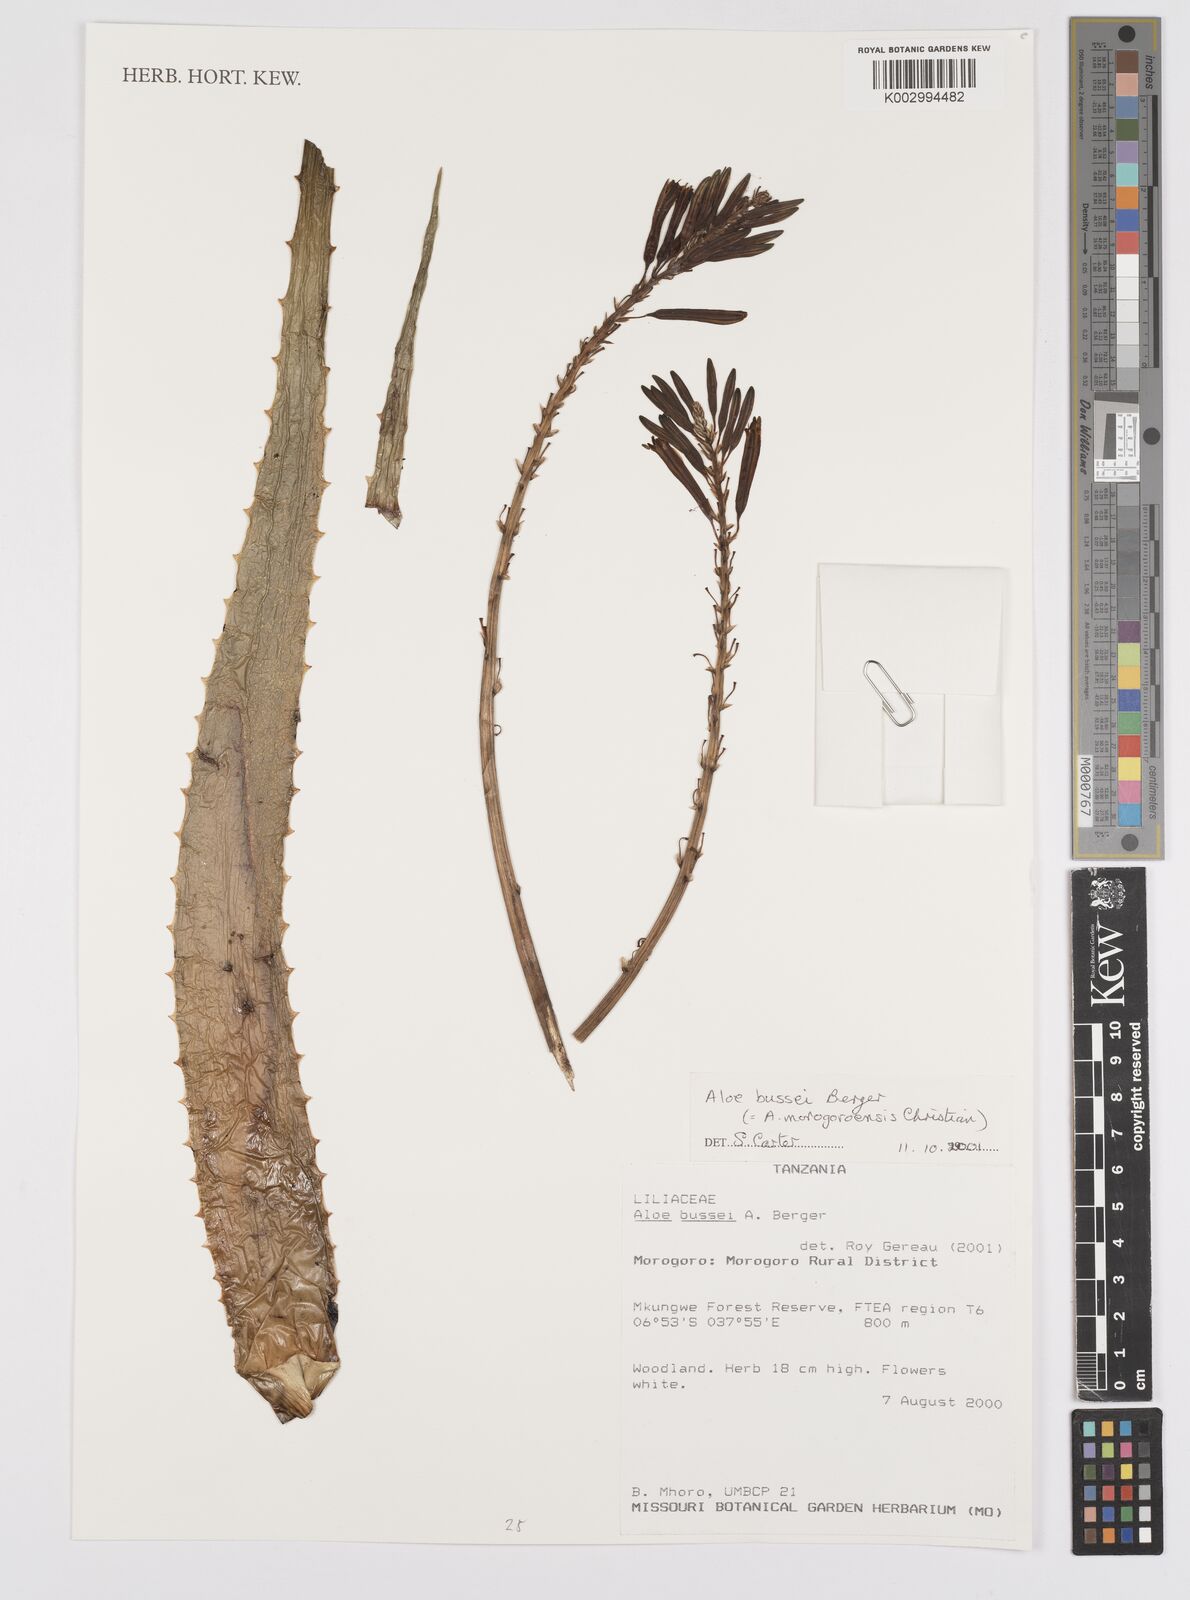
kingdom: Plantae
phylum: Tracheophyta
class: Liliopsida
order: Asparagales
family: Asphodelaceae
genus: Aloe
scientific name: Aloe bussei
